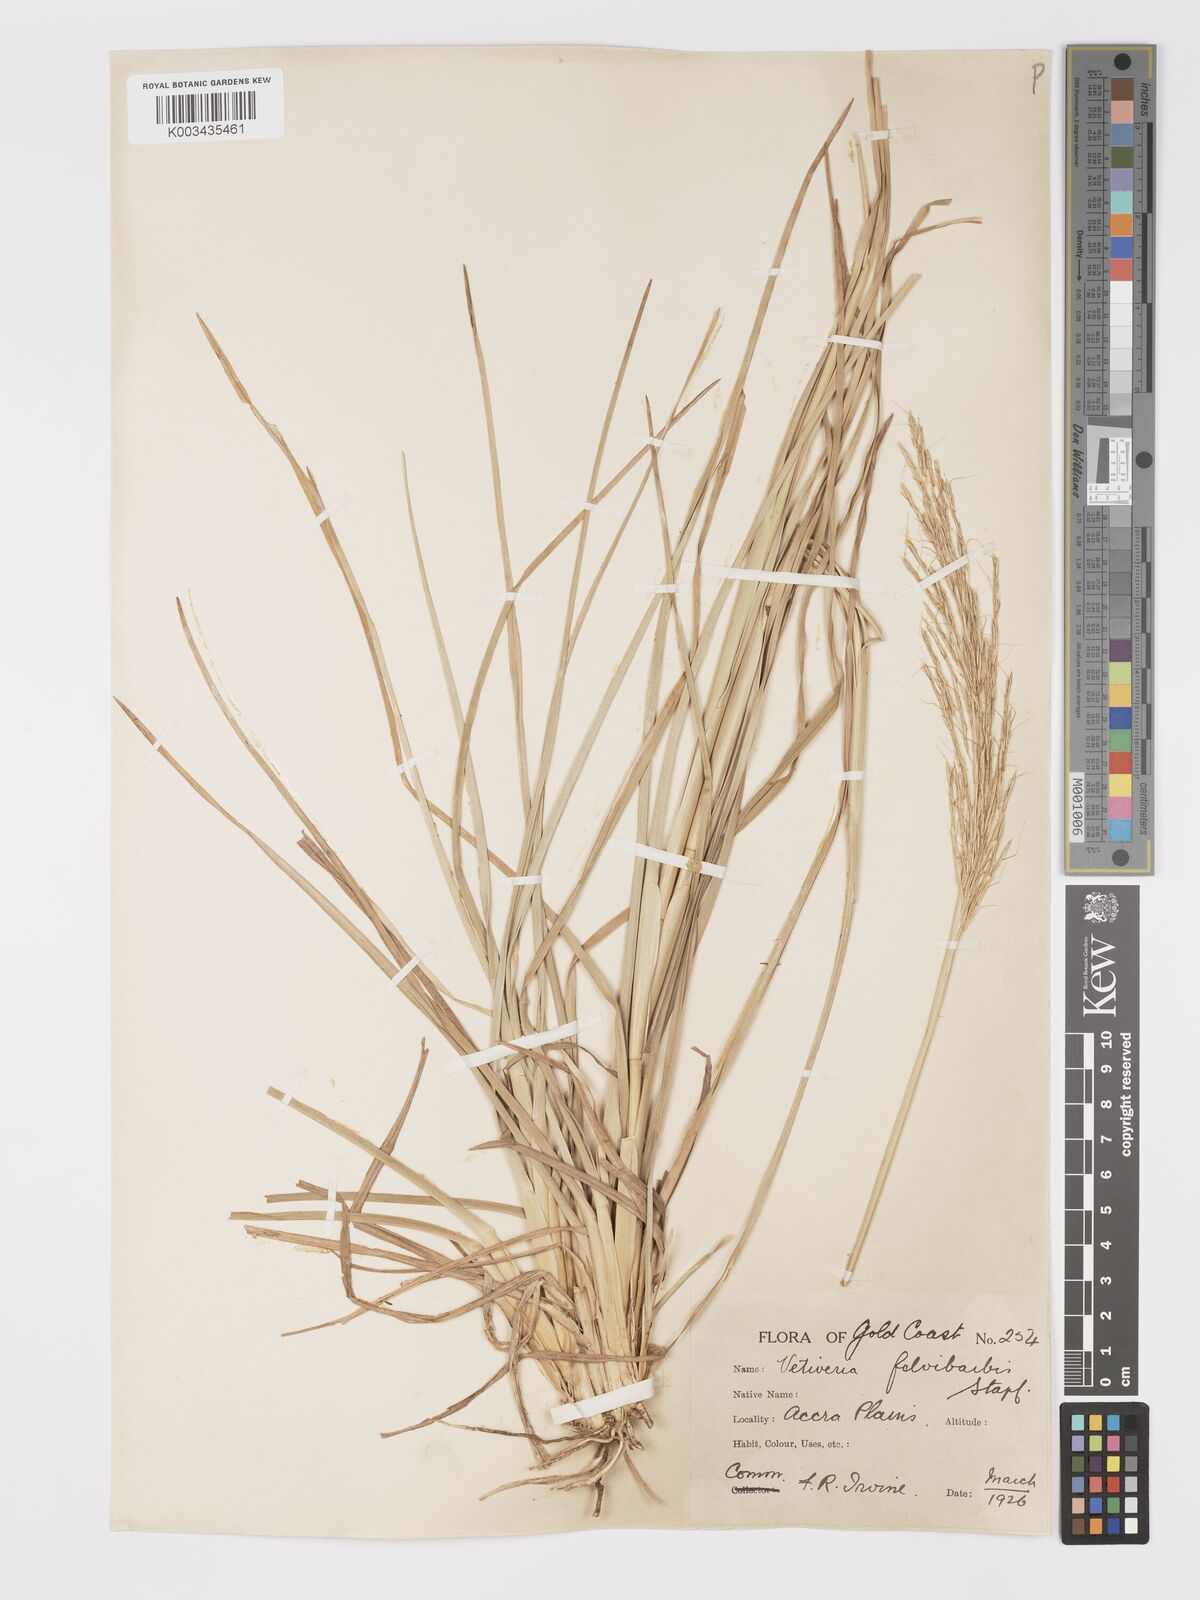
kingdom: Plantae
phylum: Tracheophyta
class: Liliopsida
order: Poales
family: Poaceae
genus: Chrysopogon
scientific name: Chrysopogon fulvibarbis
